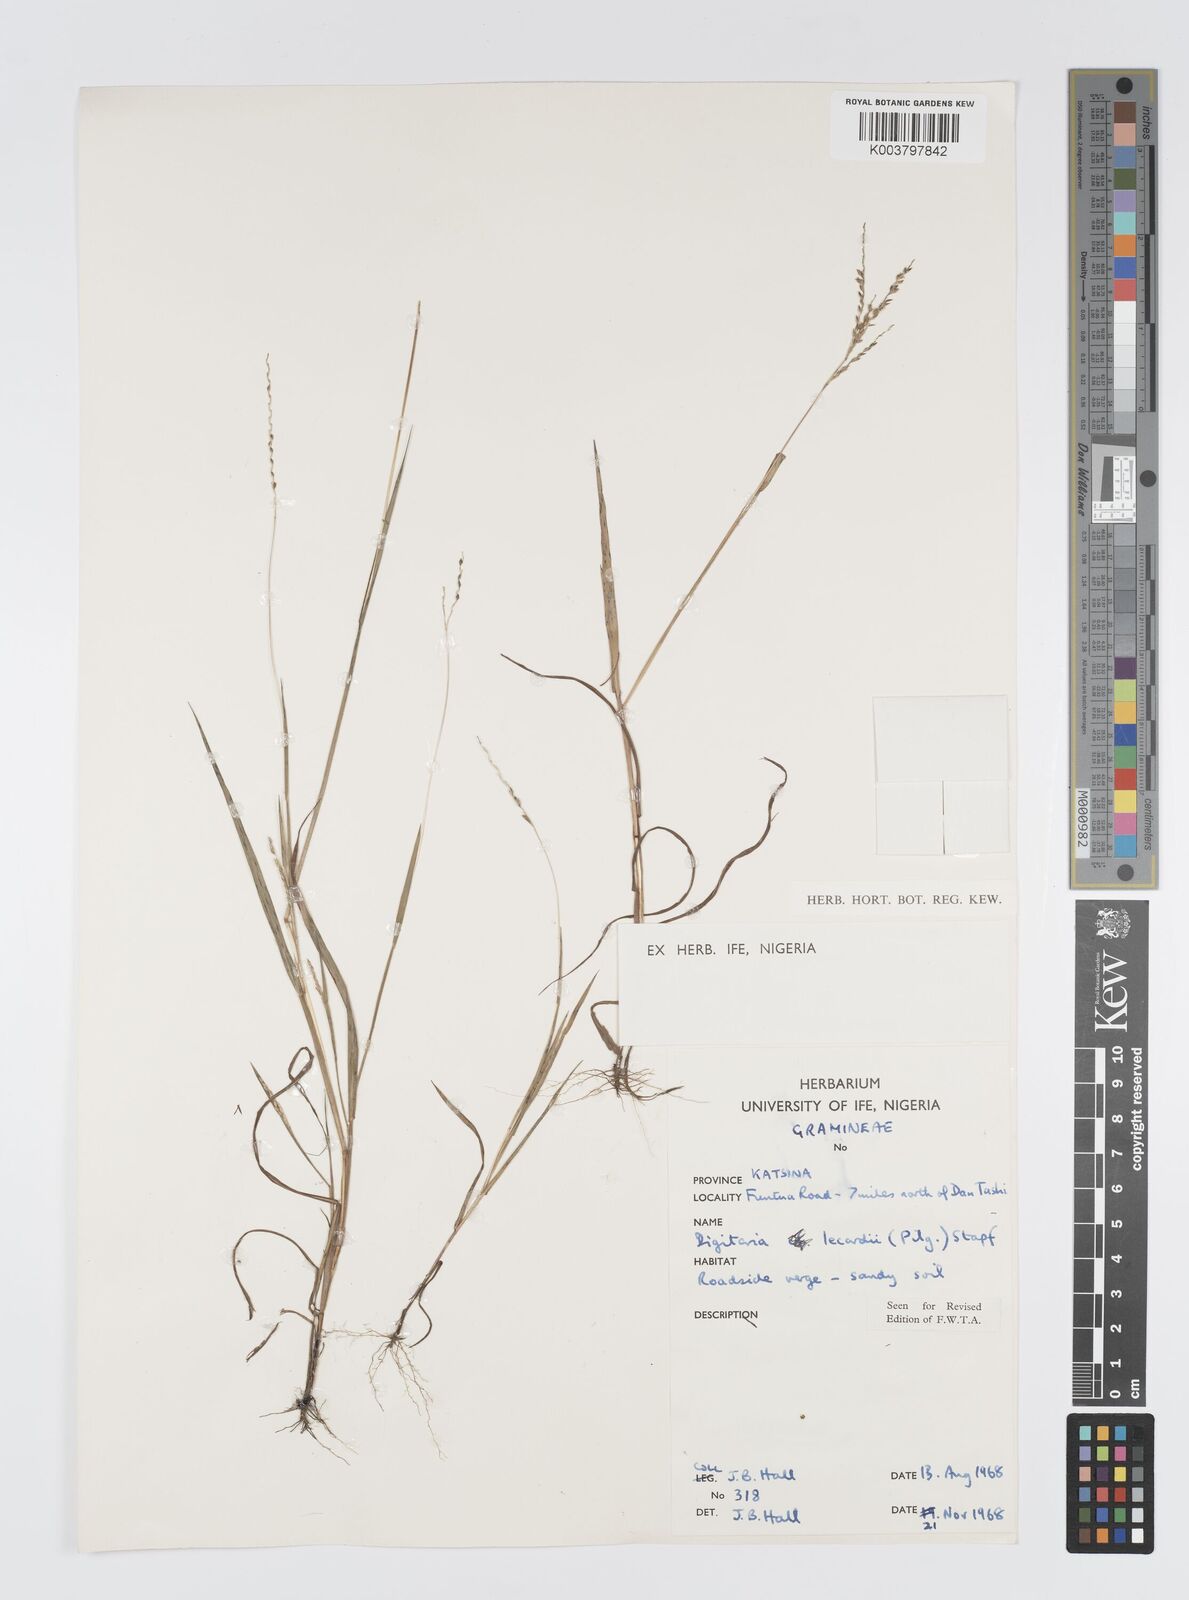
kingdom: Plantae
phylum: Tracheophyta
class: Liliopsida
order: Poales
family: Poaceae
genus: Digitaria
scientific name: Digitaria argillacea
